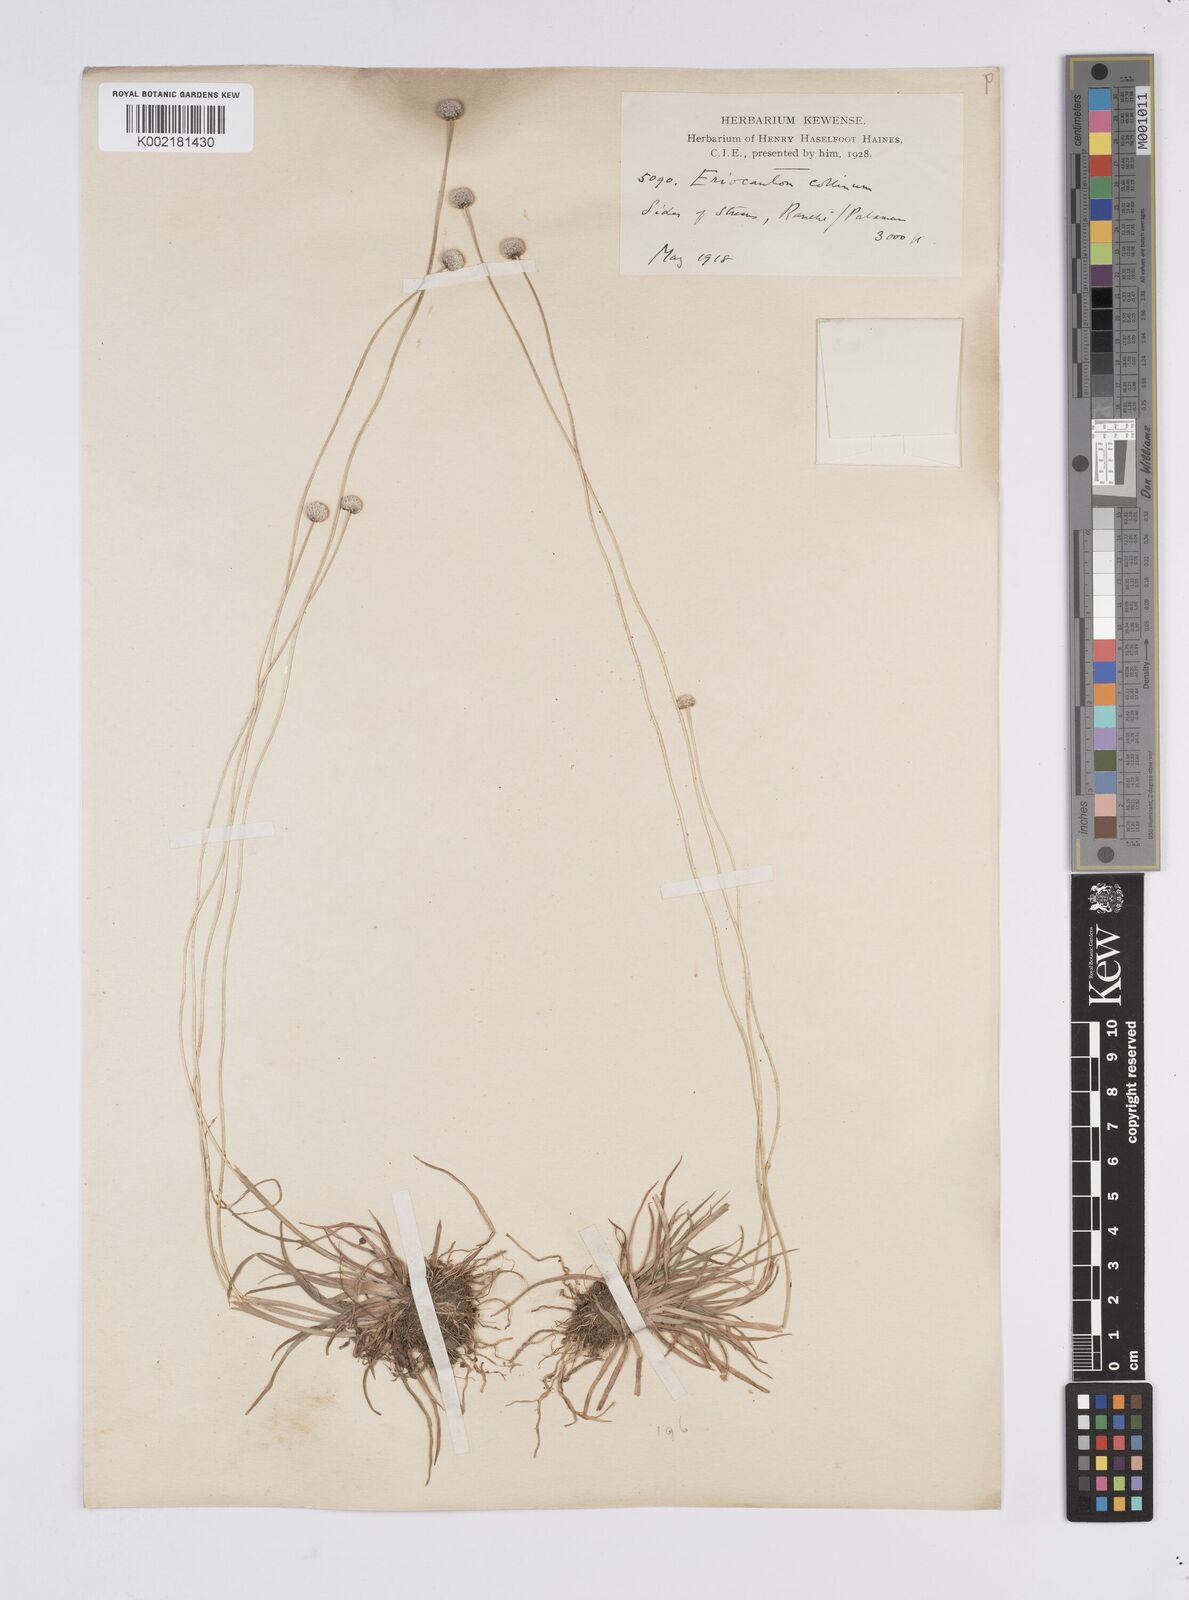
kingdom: Plantae
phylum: Tracheophyta
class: Liliopsida
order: Poales
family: Eriocaulaceae
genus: Eriocaulon
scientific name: Eriocaulon odoratum
